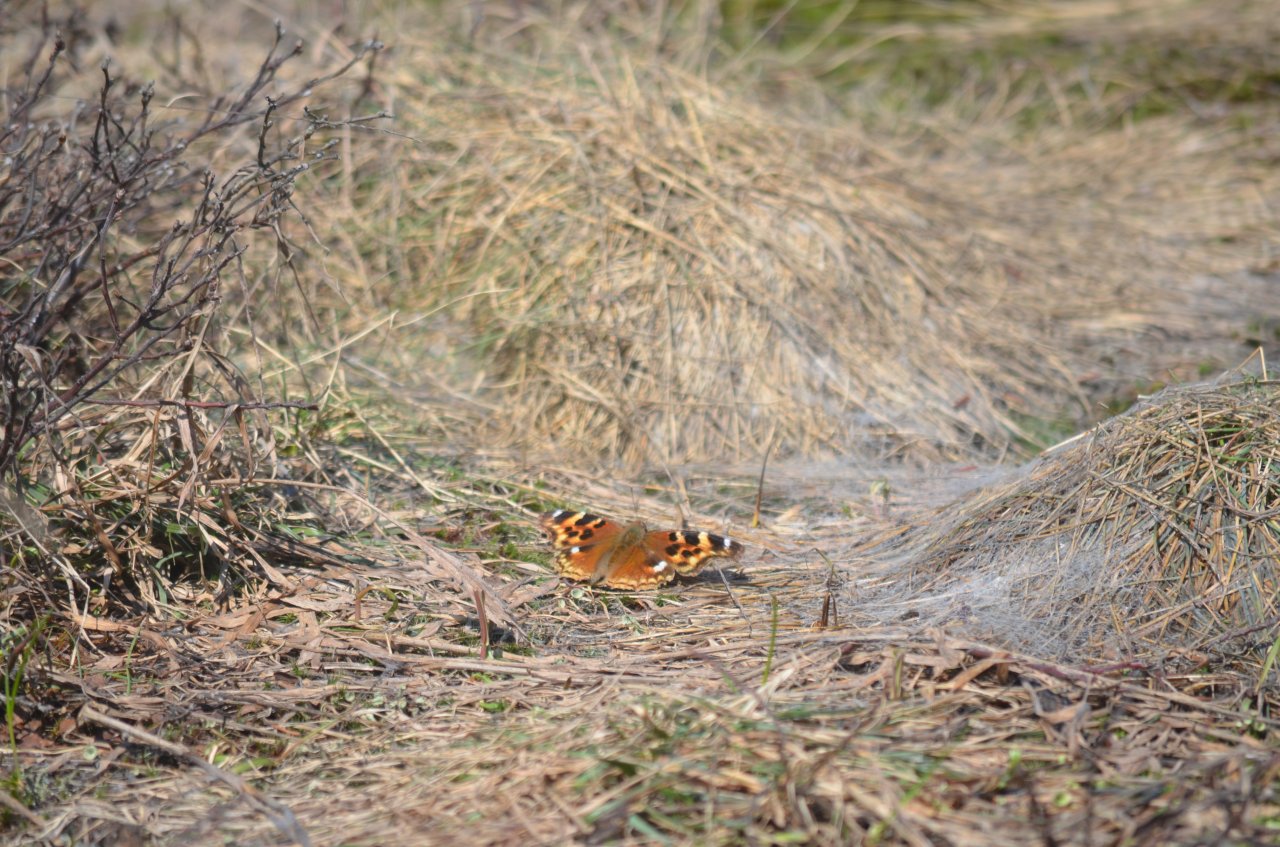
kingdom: Animalia
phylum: Arthropoda
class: Insecta
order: Lepidoptera
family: Nymphalidae
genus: Polygonia
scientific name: Polygonia vaualbum
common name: Compton Tortoiseshell
